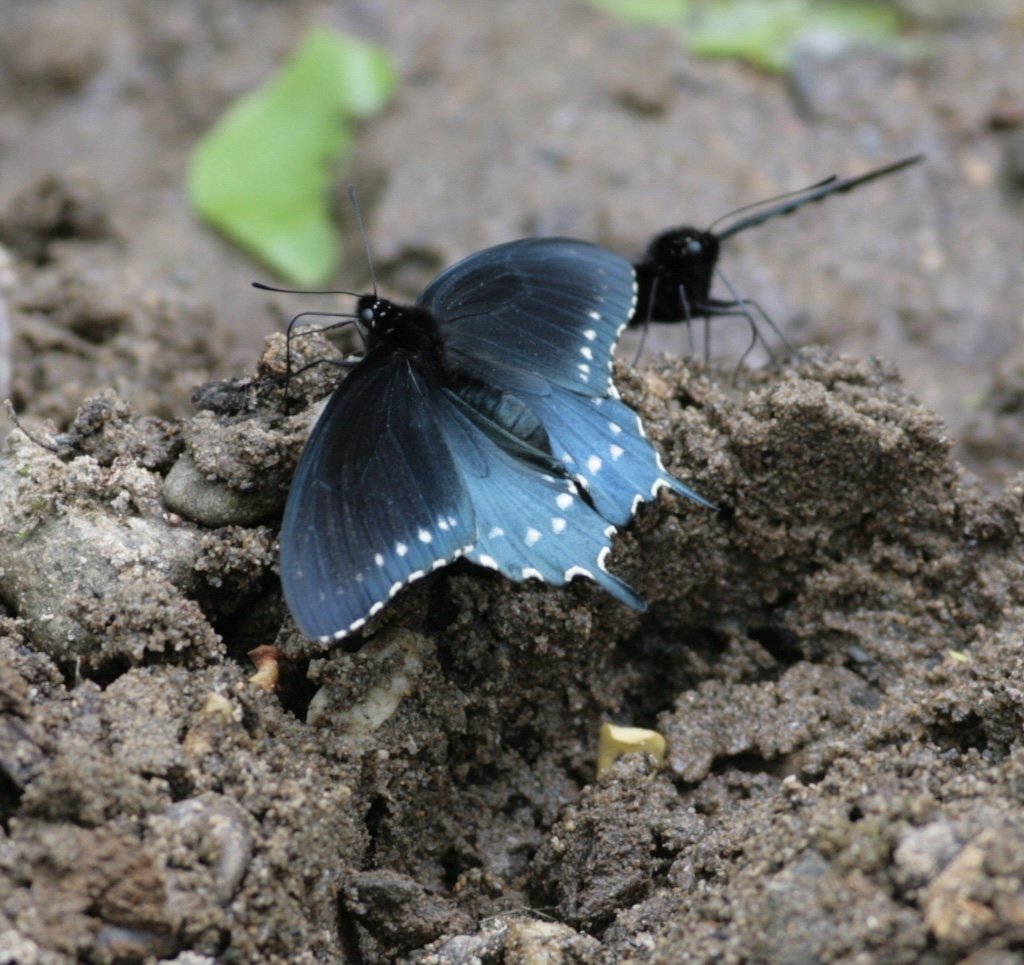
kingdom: Animalia
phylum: Arthropoda
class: Insecta
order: Lepidoptera
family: Papilionidae
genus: Battus
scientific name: Battus philenor
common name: Pipevine Swallowtail
